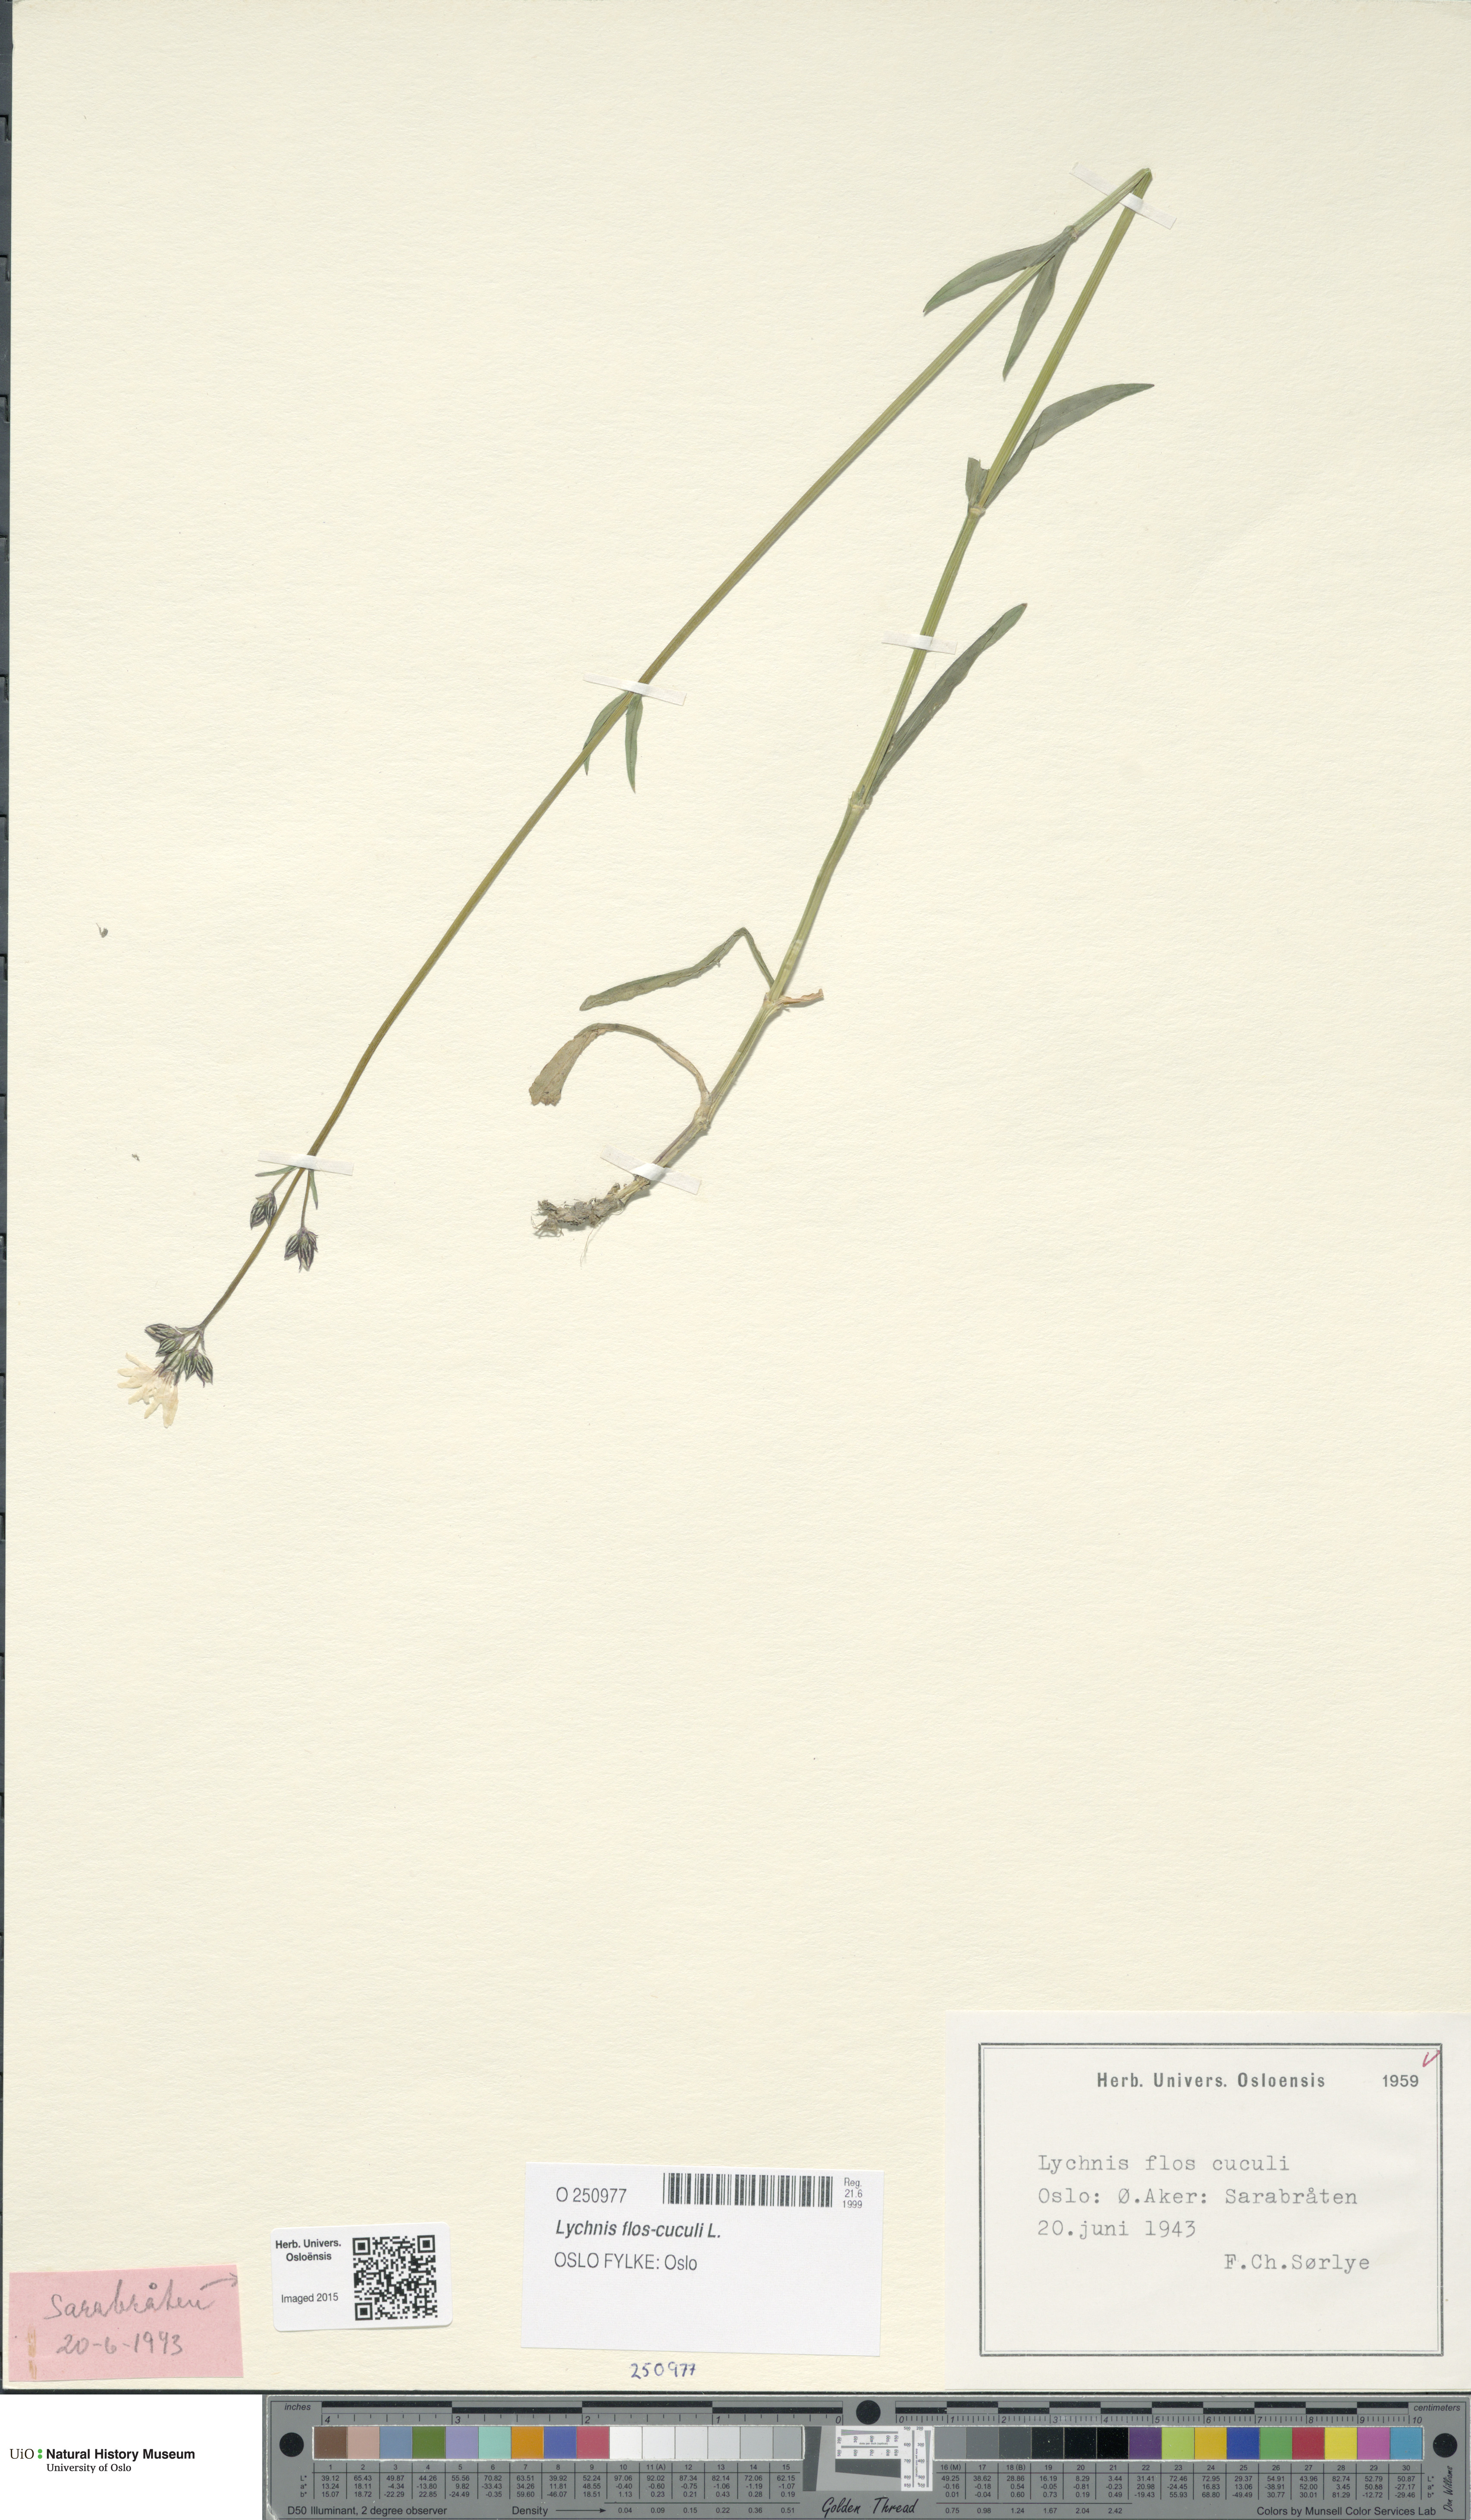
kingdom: Plantae
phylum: Tracheophyta
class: Magnoliopsida
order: Caryophyllales
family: Caryophyllaceae
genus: Silene
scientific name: Silene flos-cuculi
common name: Ragged-robin
